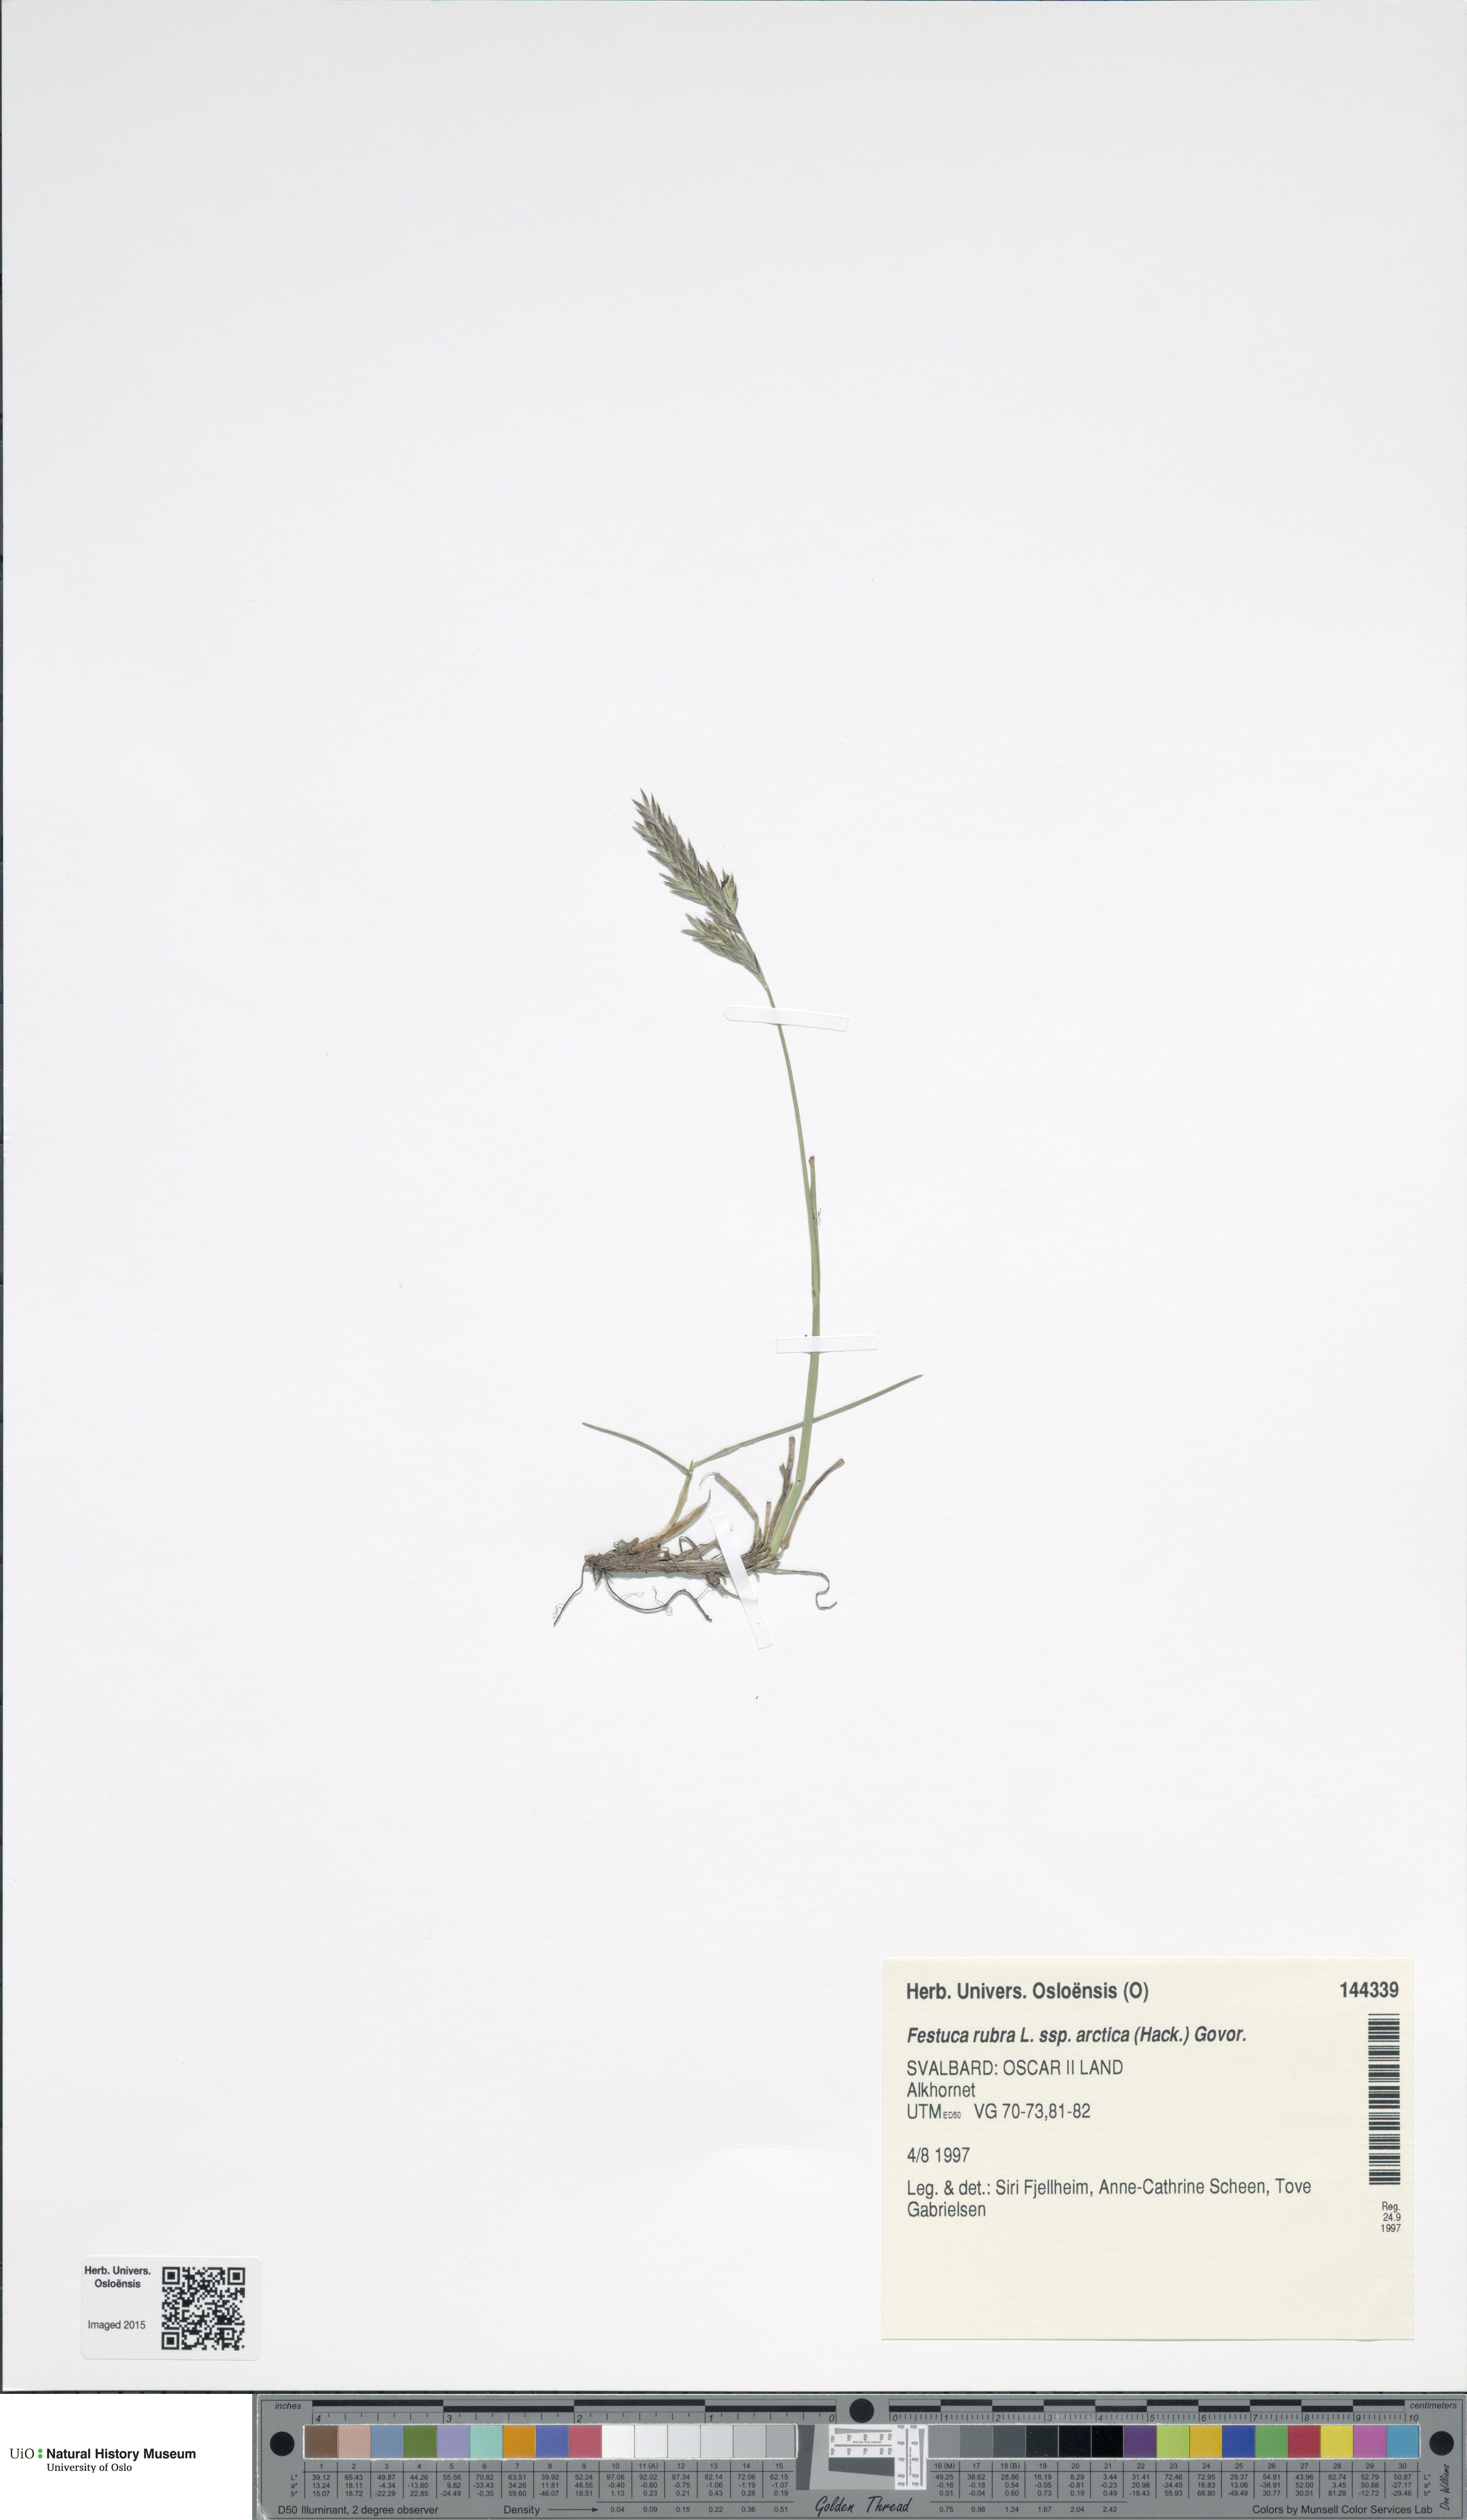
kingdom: Plantae
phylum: Tracheophyta
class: Liliopsida
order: Poales
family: Poaceae
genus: Festuca
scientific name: Festuca richardsonii
